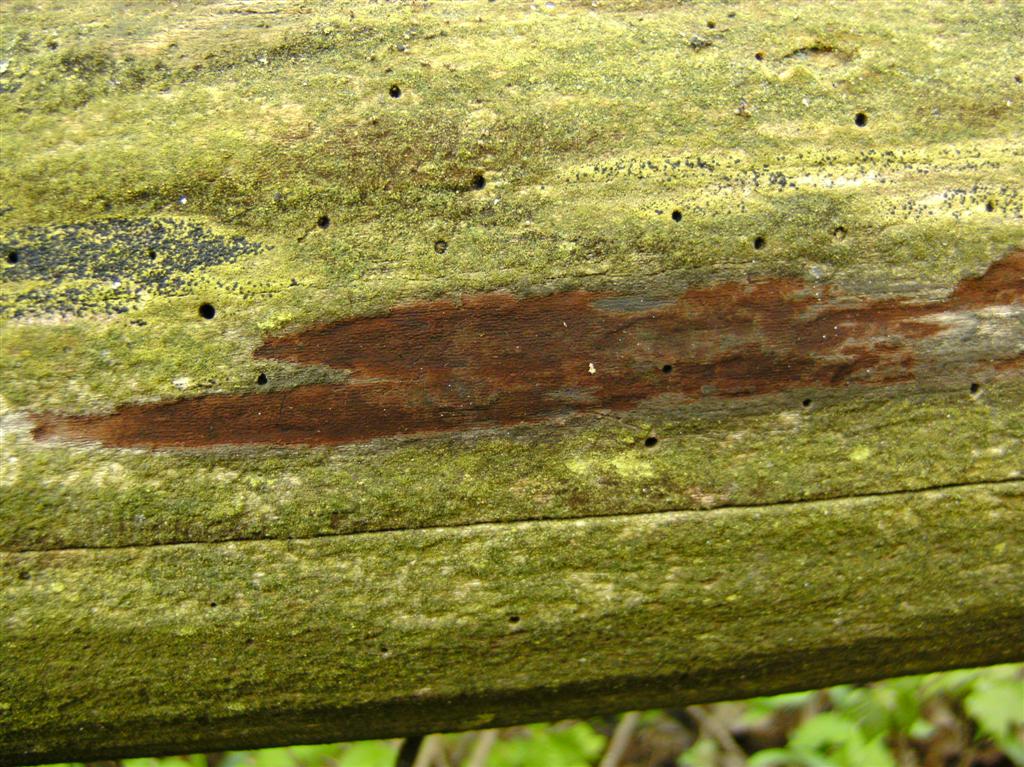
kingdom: Fungi
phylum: Basidiomycota
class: Agaricomycetes
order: Polyporales
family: Irpicaceae
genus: Efibula
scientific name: Efibula tuberculata
